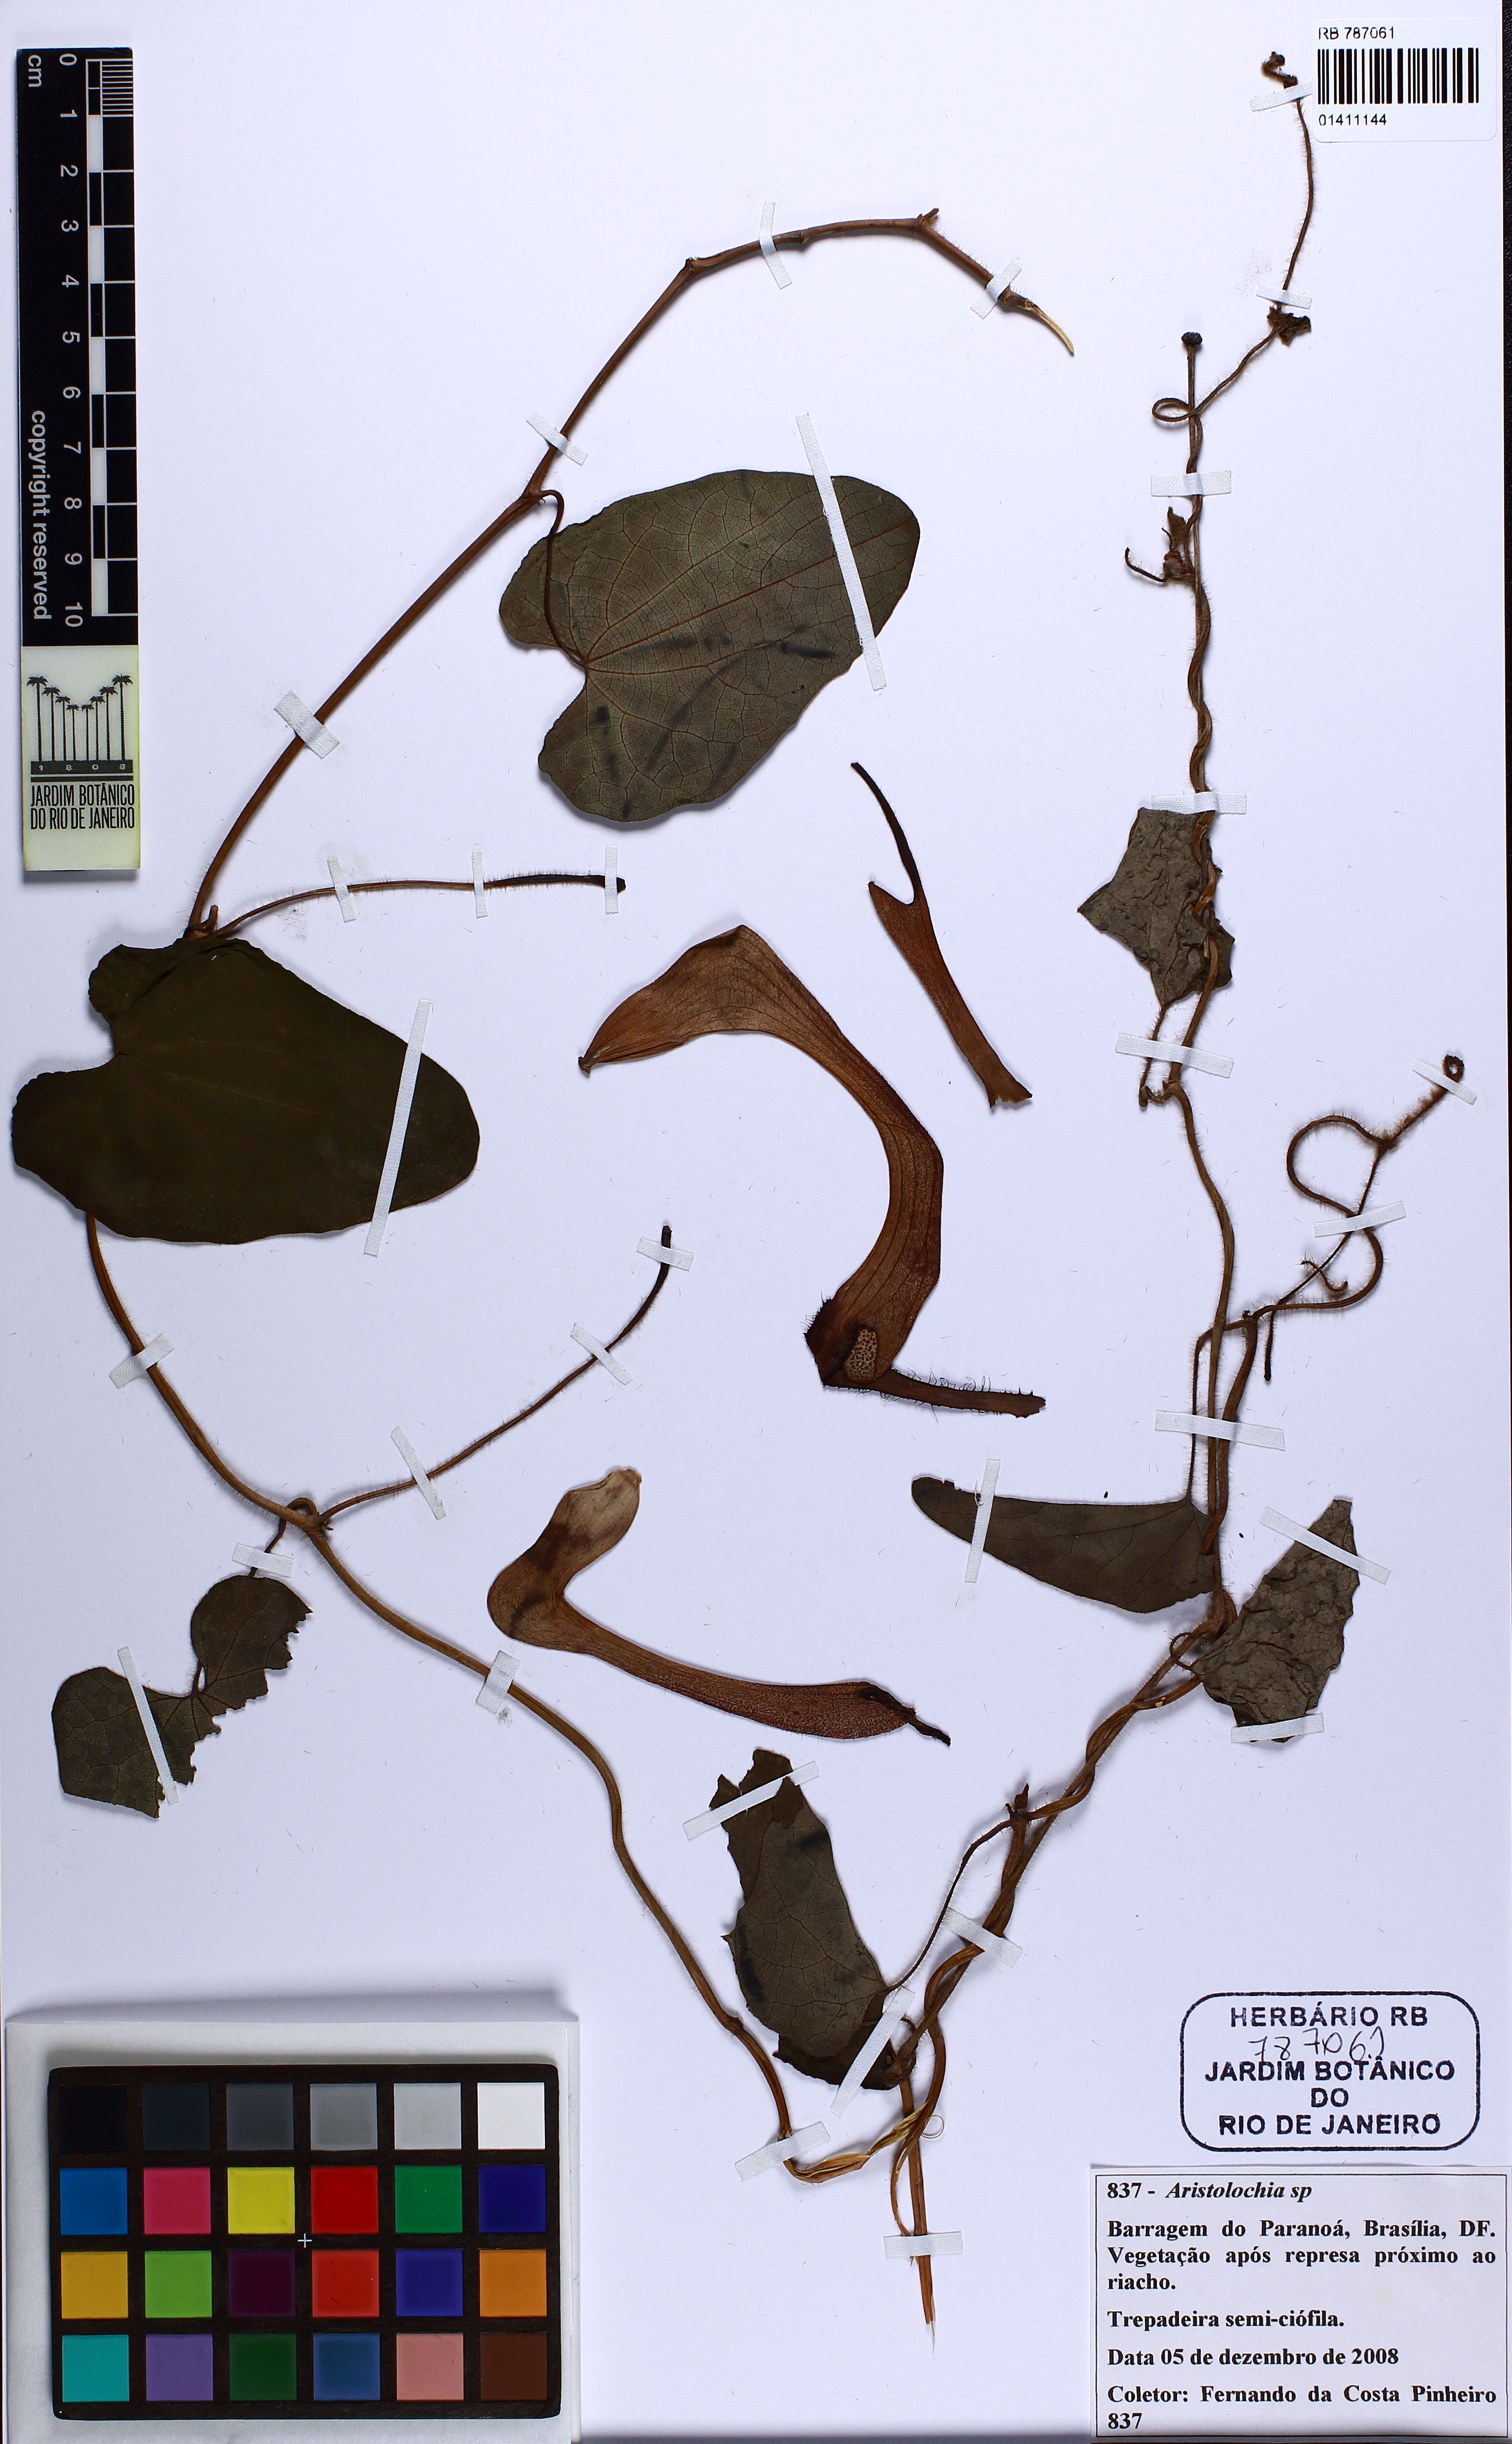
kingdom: Plantae
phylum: Tracheophyta
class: Magnoliopsida
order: Piperales
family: Aristolochiaceae
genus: Aristolochia
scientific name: Aristolochia filipendulina
